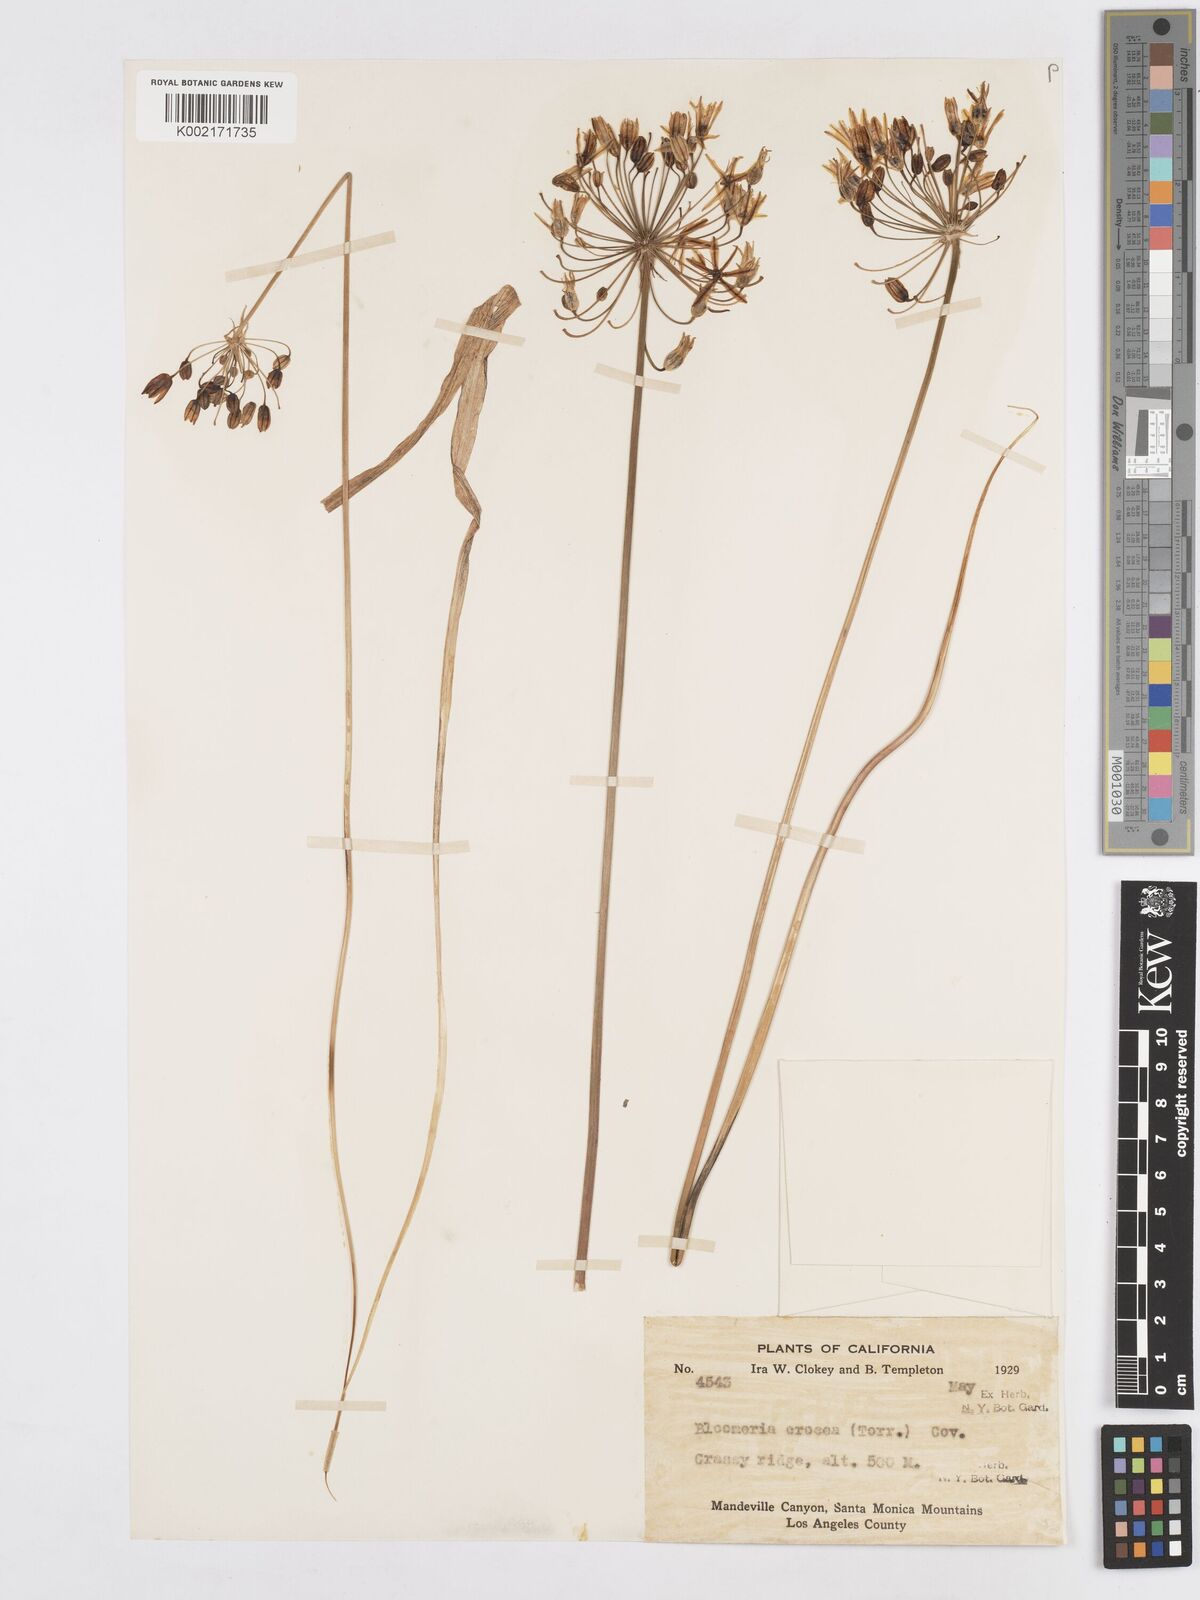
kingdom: Plantae
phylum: Tracheophyta
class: Liliopsida
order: Asparagales
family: Asparagaceae
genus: Triteleia
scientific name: Triteleia crocea
